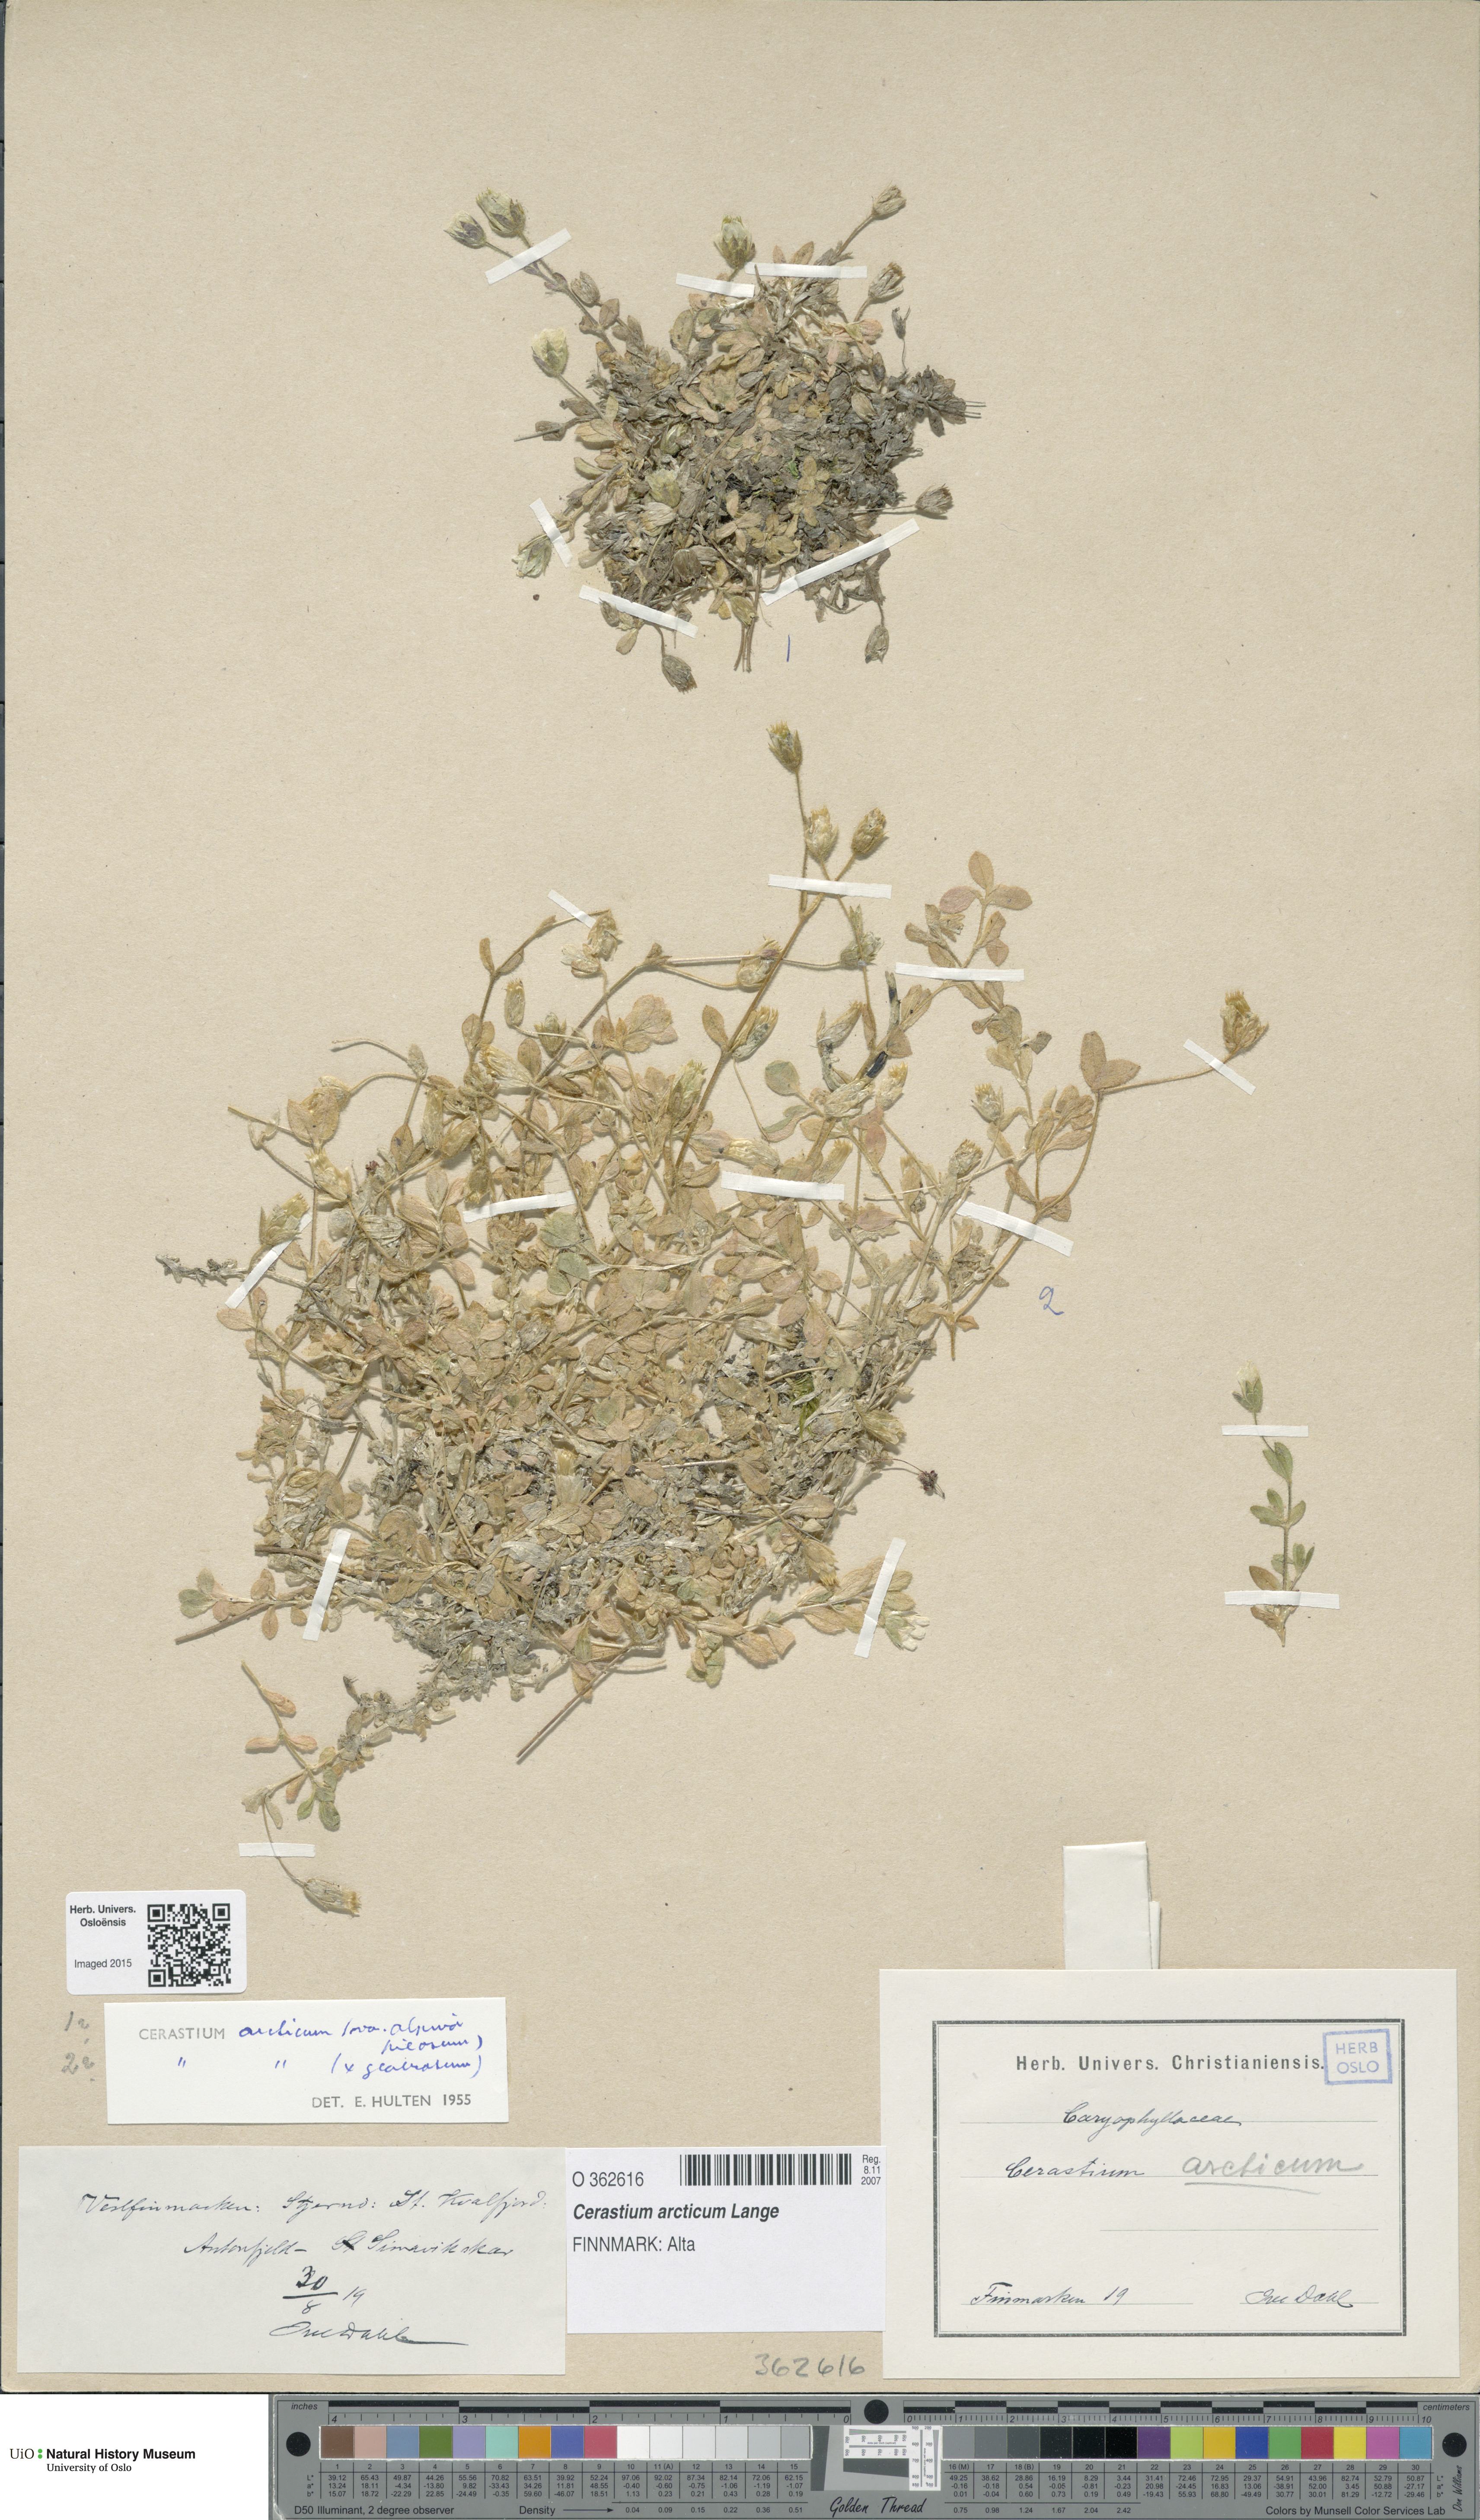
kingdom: Plantae
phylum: Tracheophyta
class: Magnoliopsida
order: Caryophyllales
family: Caryophyllaceae
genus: Cerastium
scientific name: Cerastium arcticum
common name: Arctic mouse-ear
